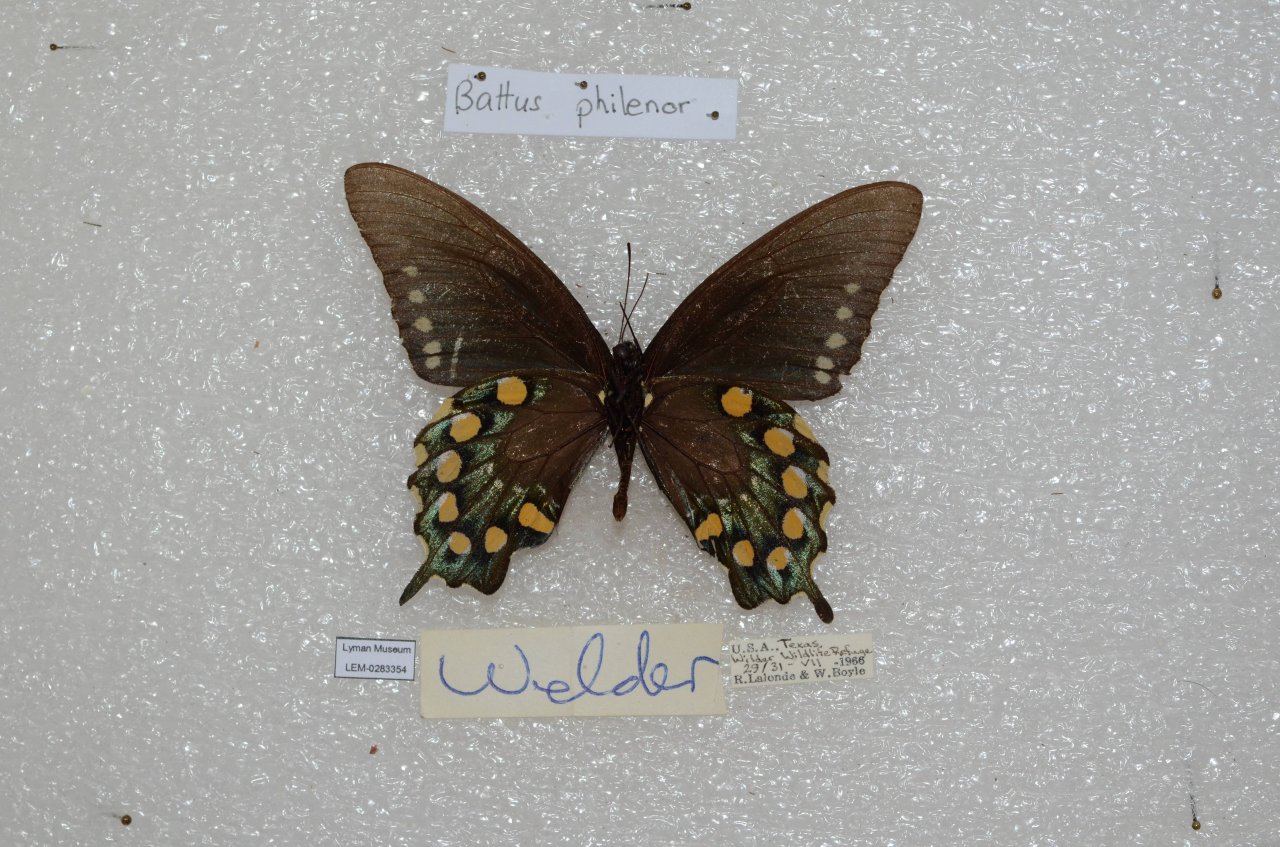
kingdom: Animalia
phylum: Arthropoda
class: Insecta
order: Lepidoptera
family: Papilionidae
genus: Battus
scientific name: Battus philenor
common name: Pipevine Swallowtail
